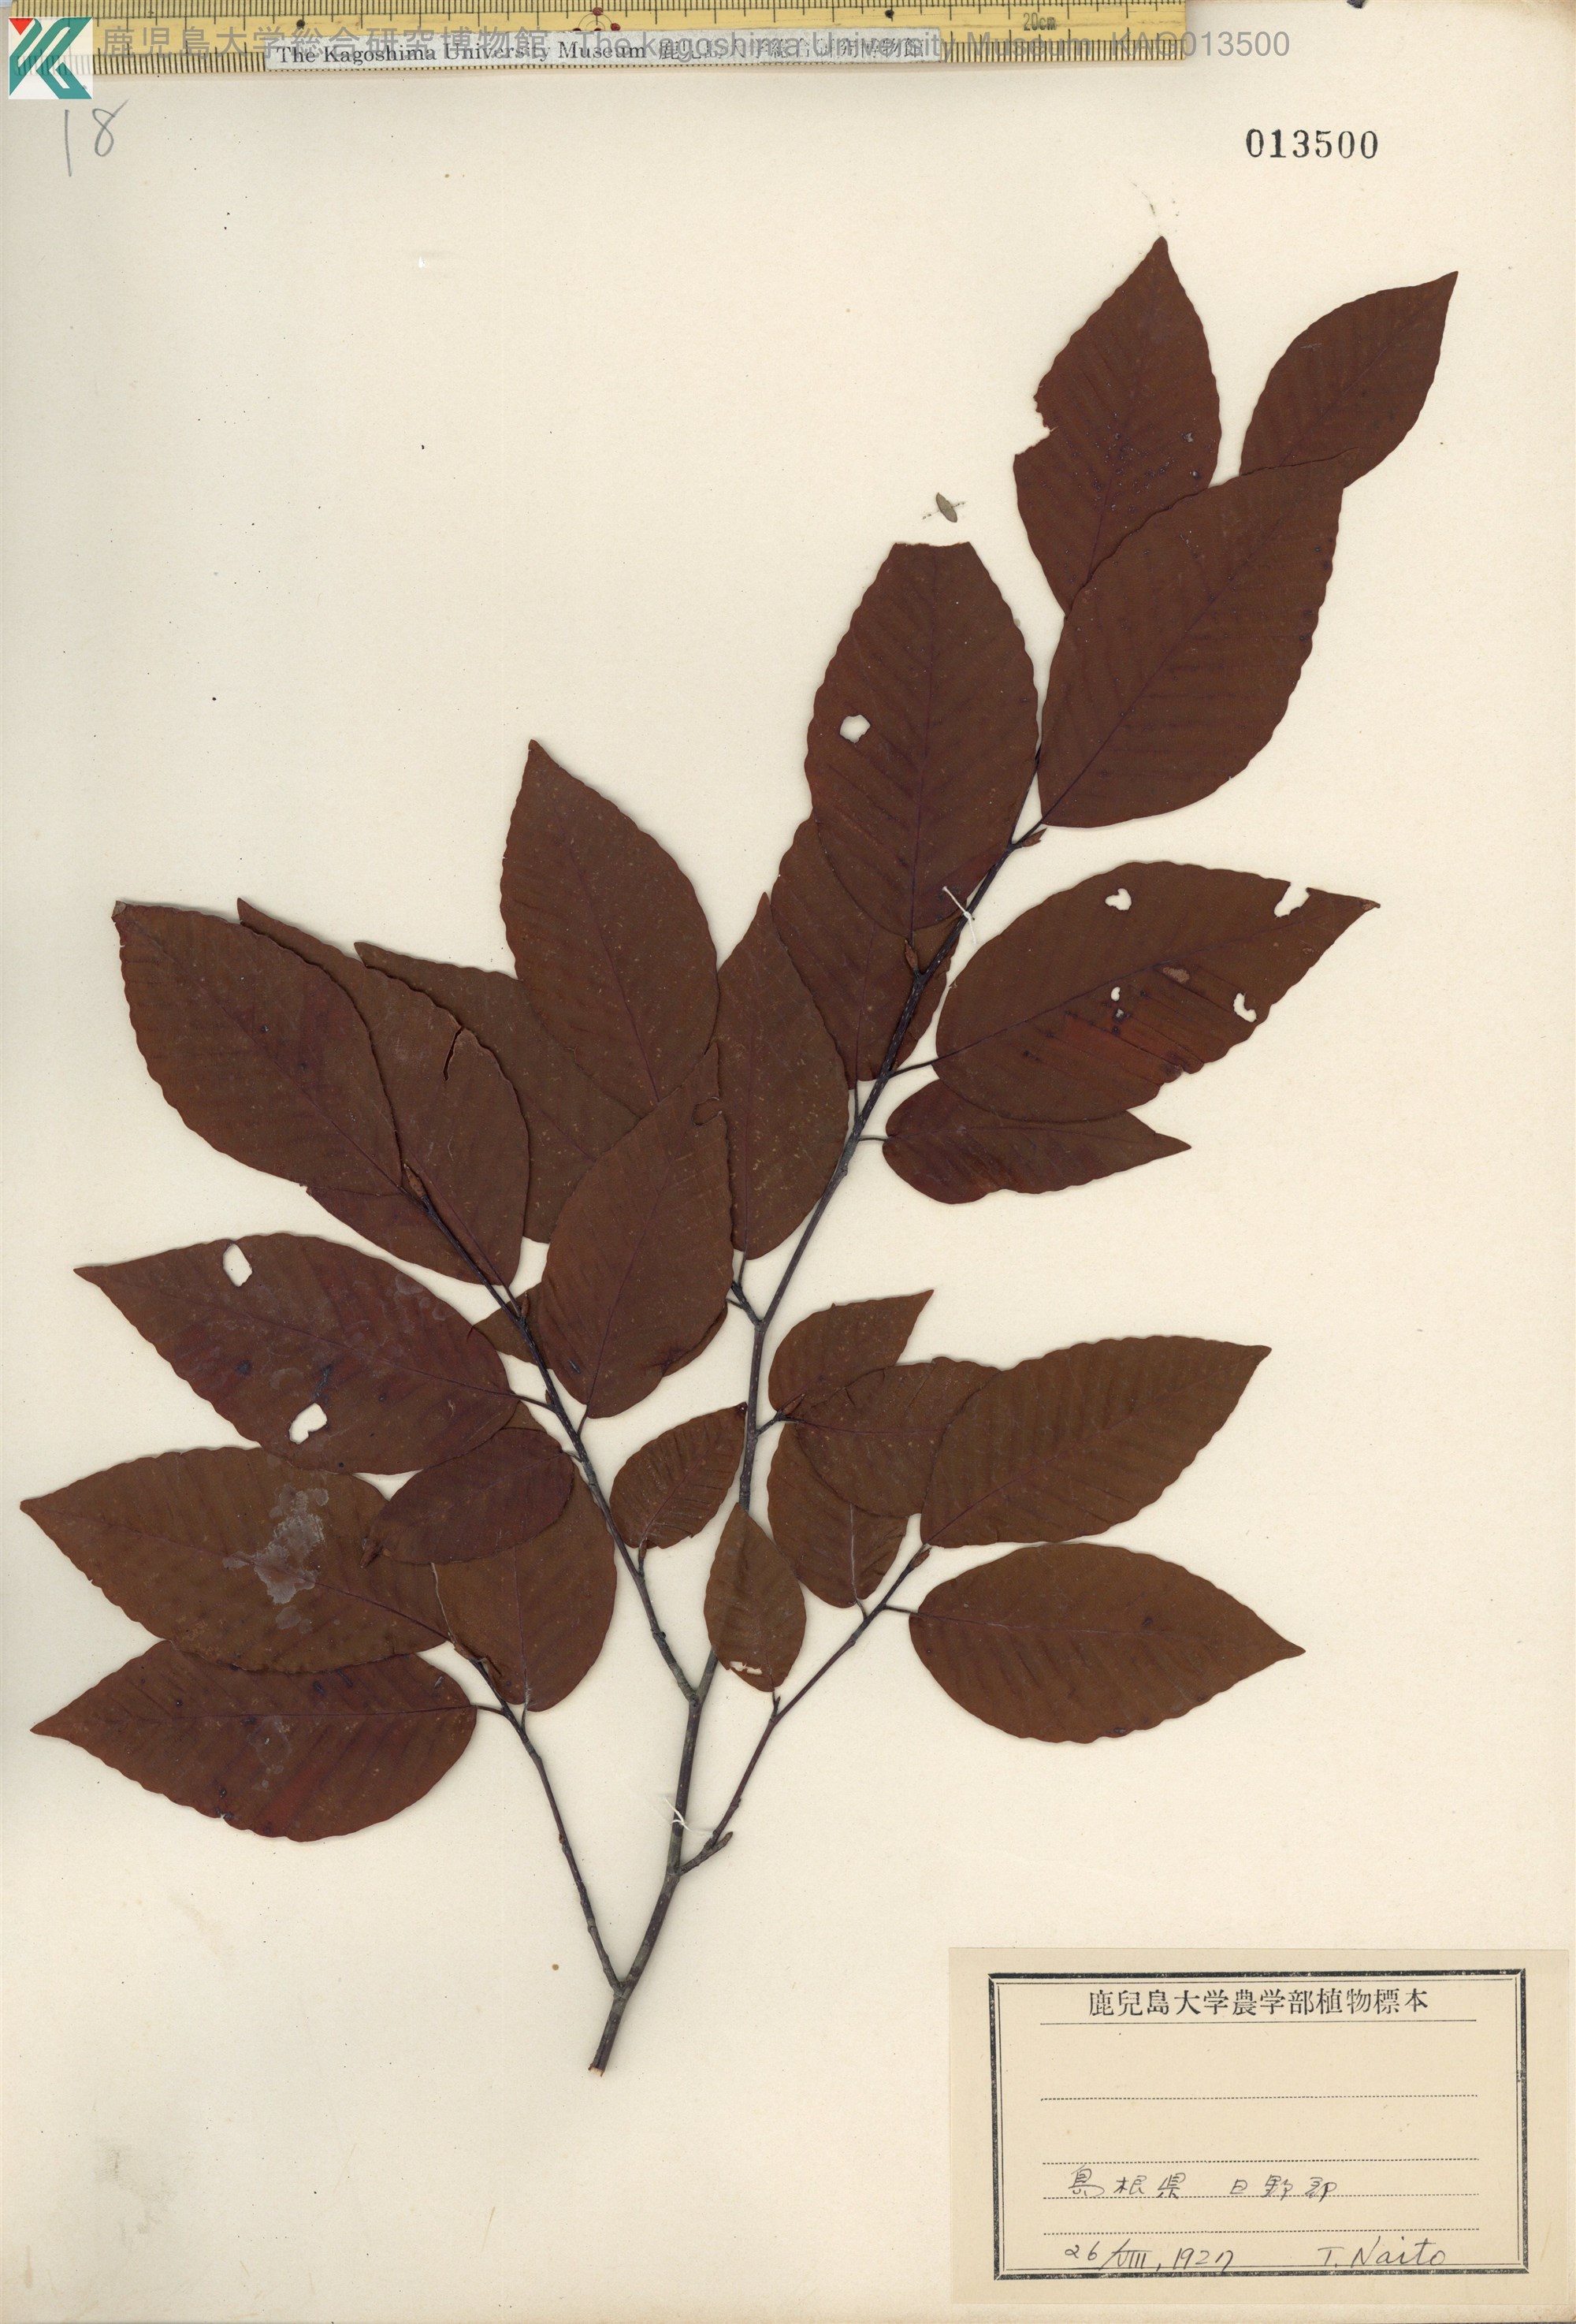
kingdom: Plantae
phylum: Tracheophyta
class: Magnoliopsida
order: Fagales
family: Fagaceae
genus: Fagus
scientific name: Fagus japonica
